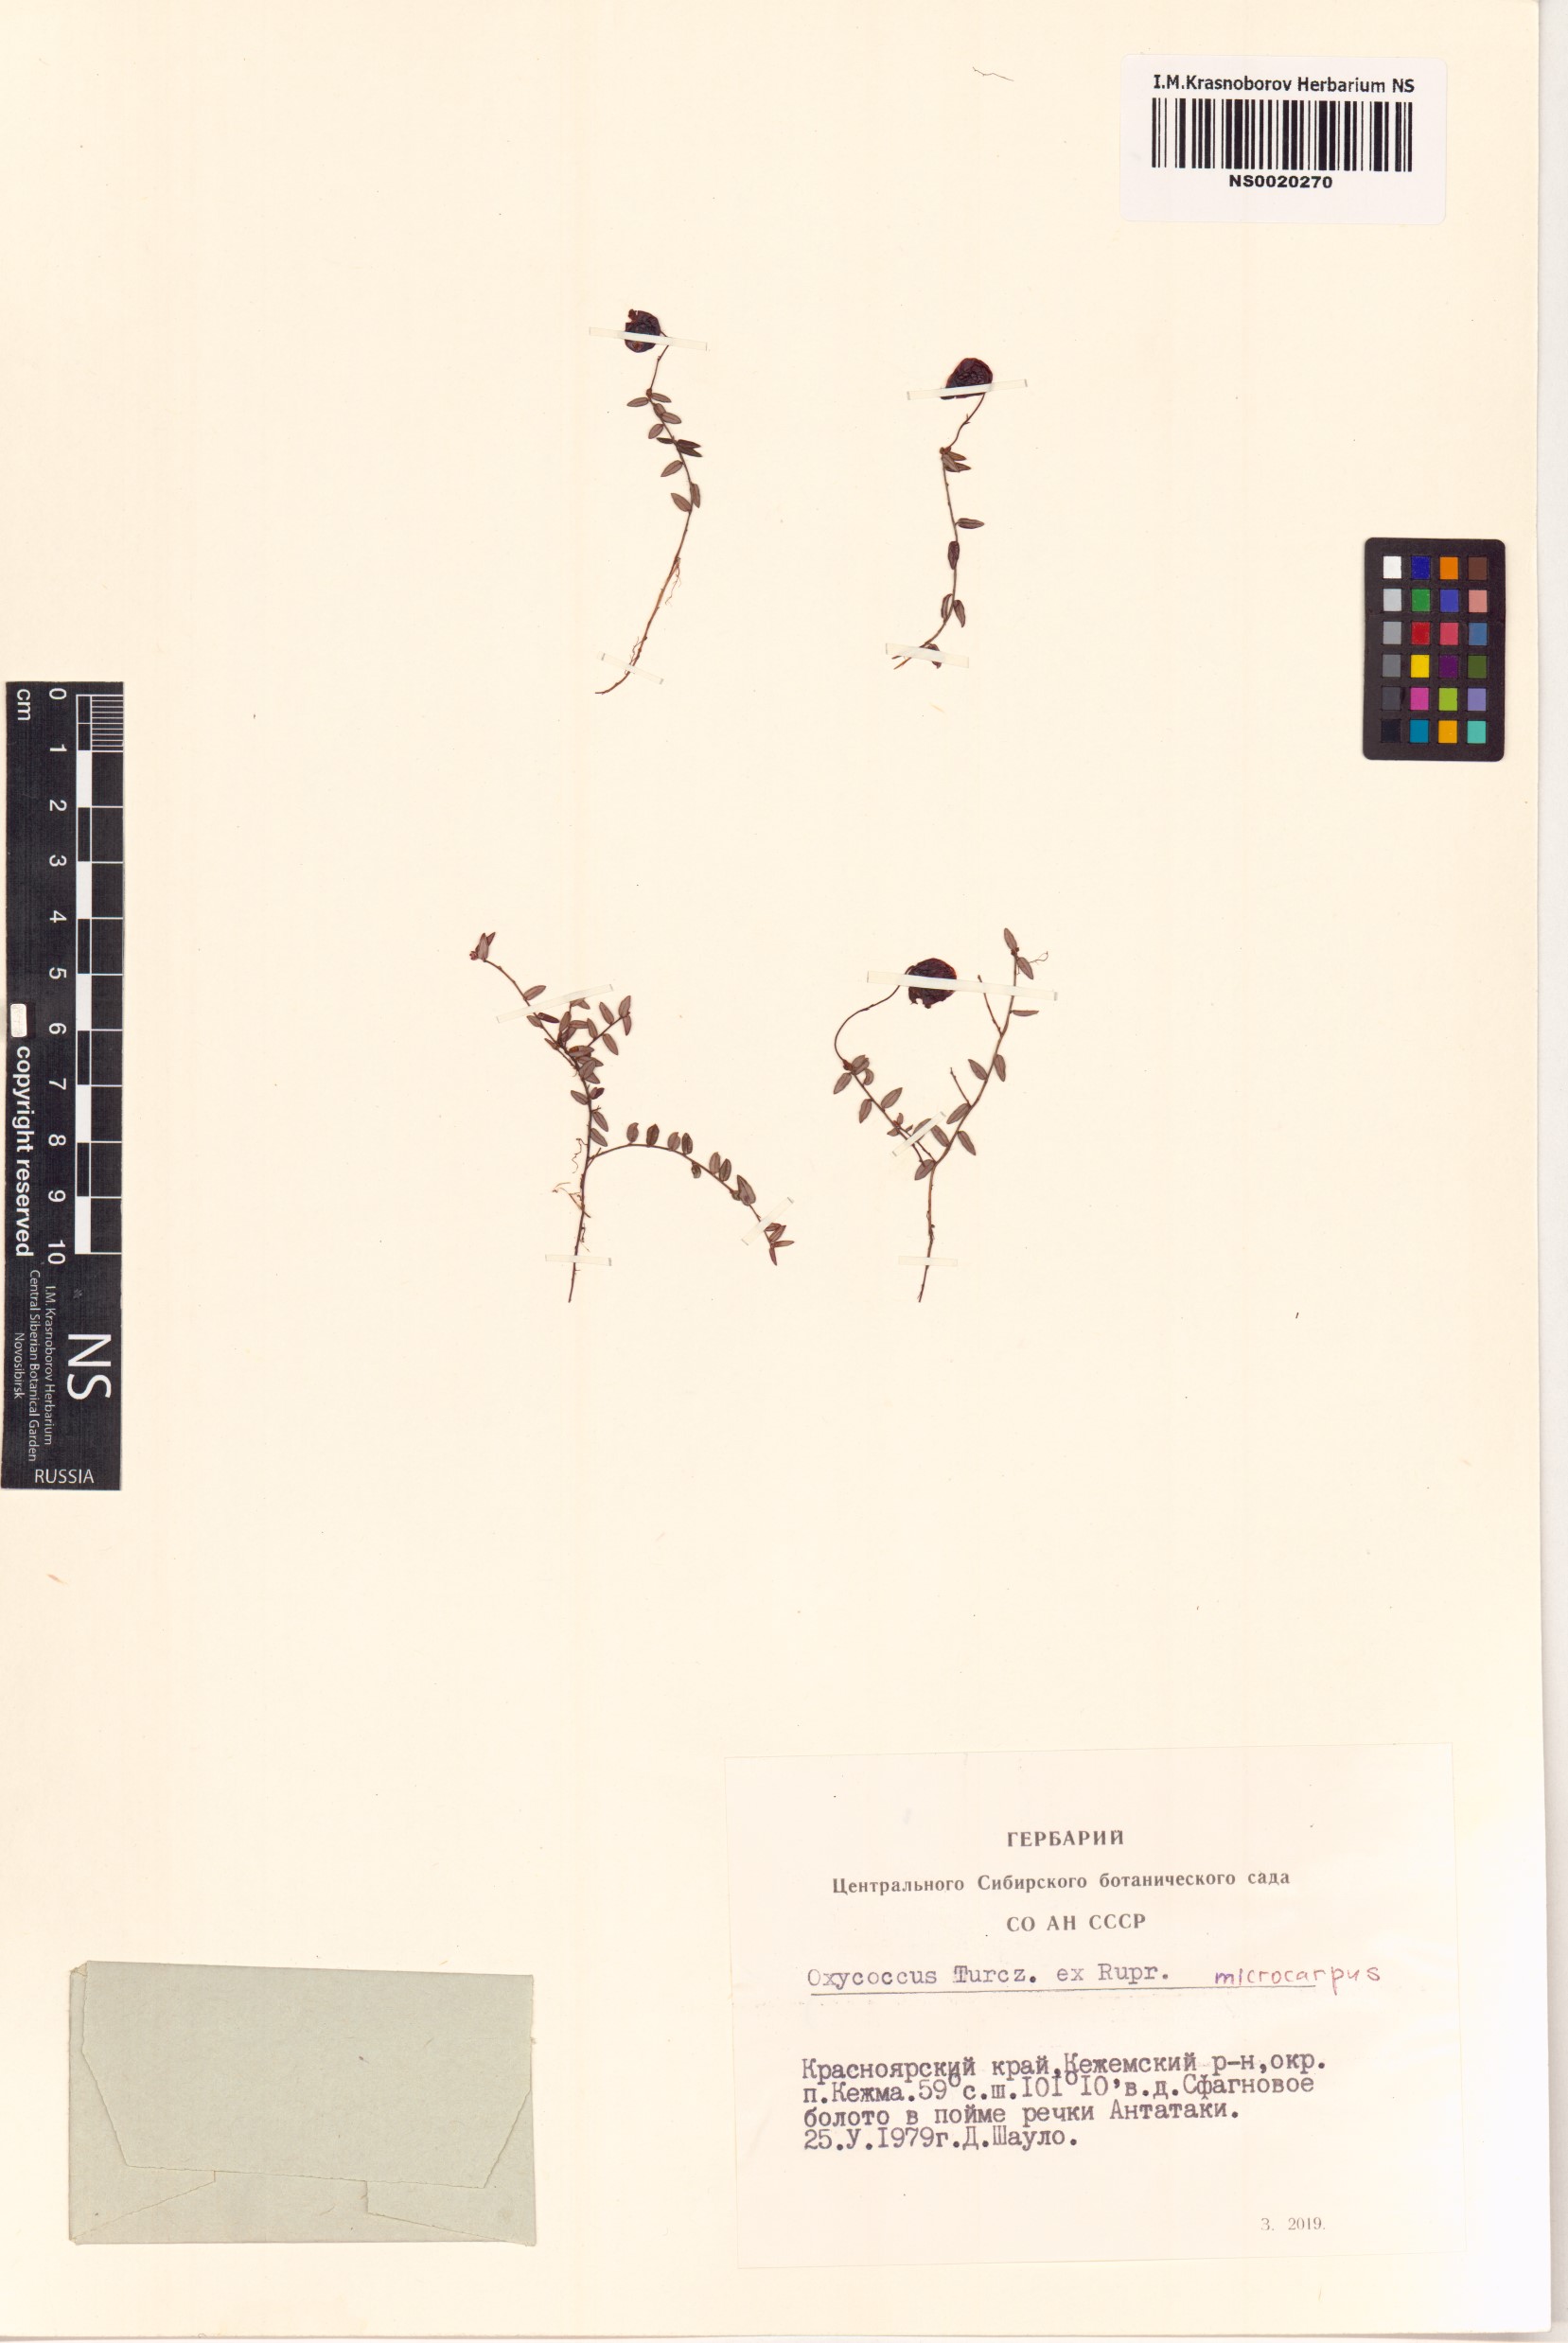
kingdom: Plantae
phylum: Tracheophyta
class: Magnoliopsida
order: Ericales
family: Ericaceae
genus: Vaccinium
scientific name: Vaccinium microcarpum
